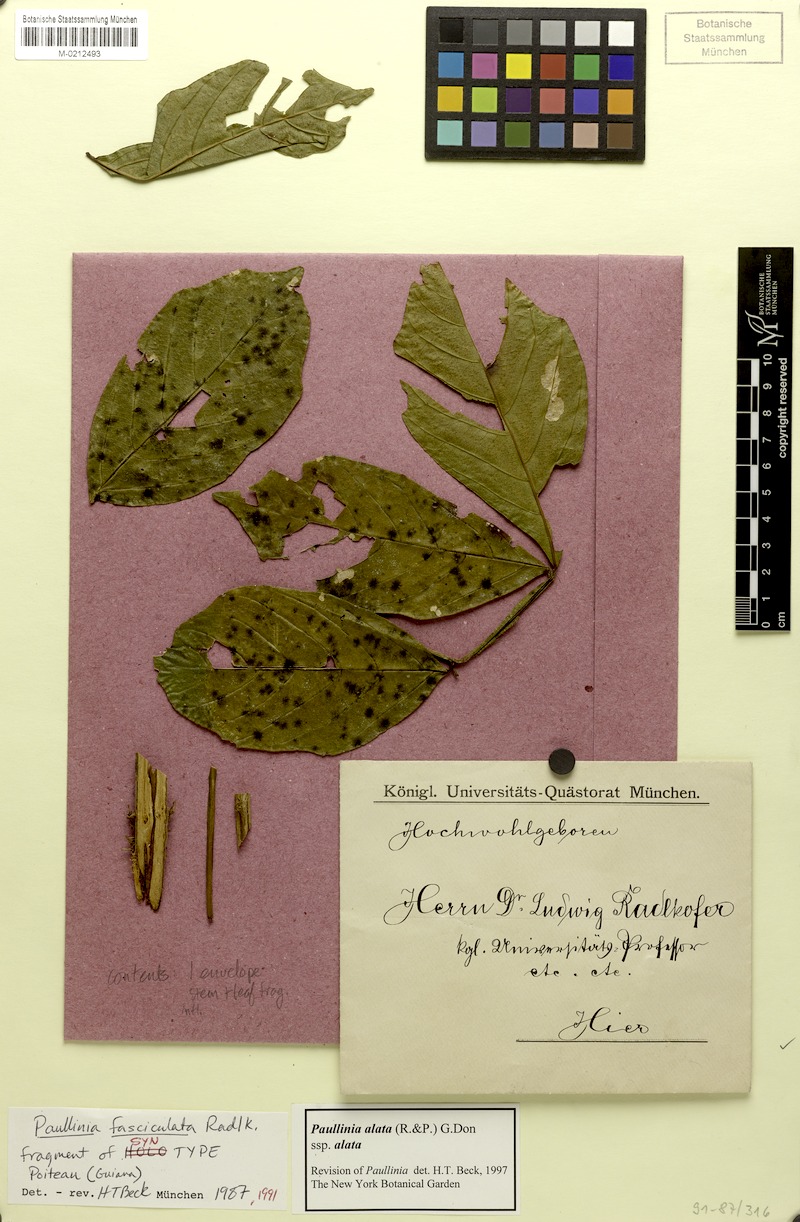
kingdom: Plantae
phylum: Tracheophyta
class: Magnoliopsida
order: Sapindales
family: Sapindaceae
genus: Paullinia
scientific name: Paullinia alata
